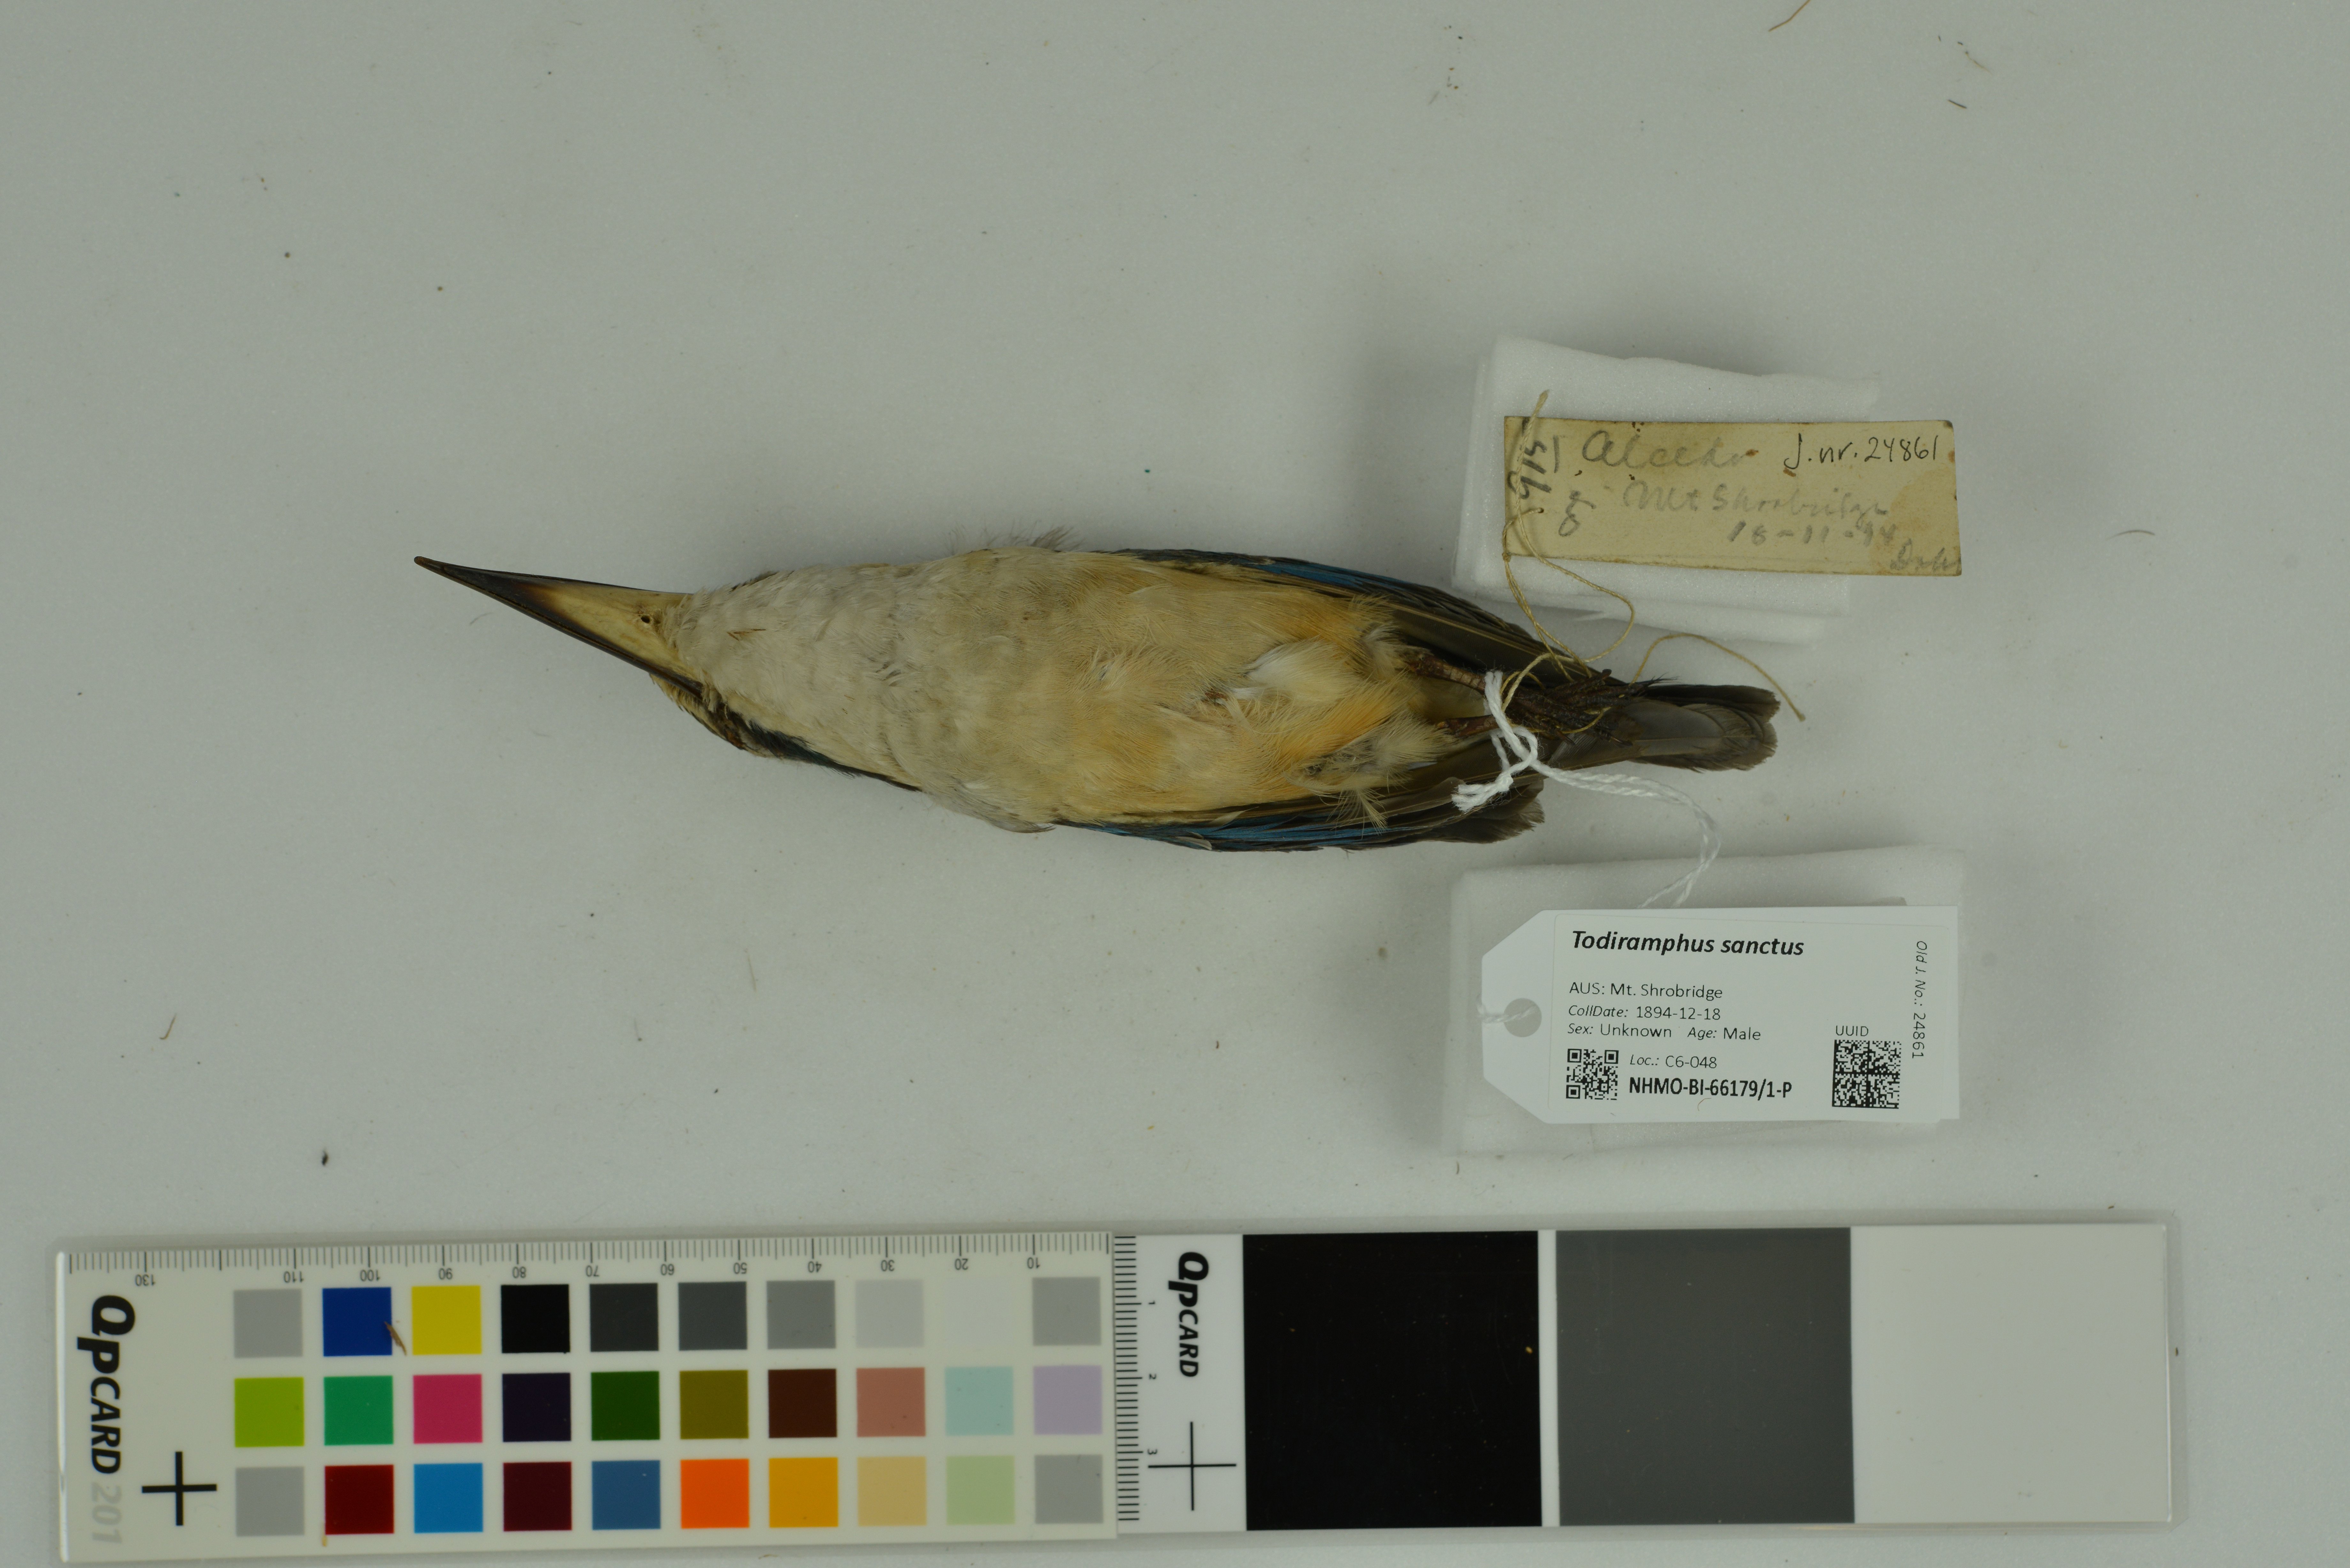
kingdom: Animalia
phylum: Chordata
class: Aves
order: Coraciiformes
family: Alcedinidae
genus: Todiramphus
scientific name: Todiramphus sanctus
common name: Sacred kingfisher
